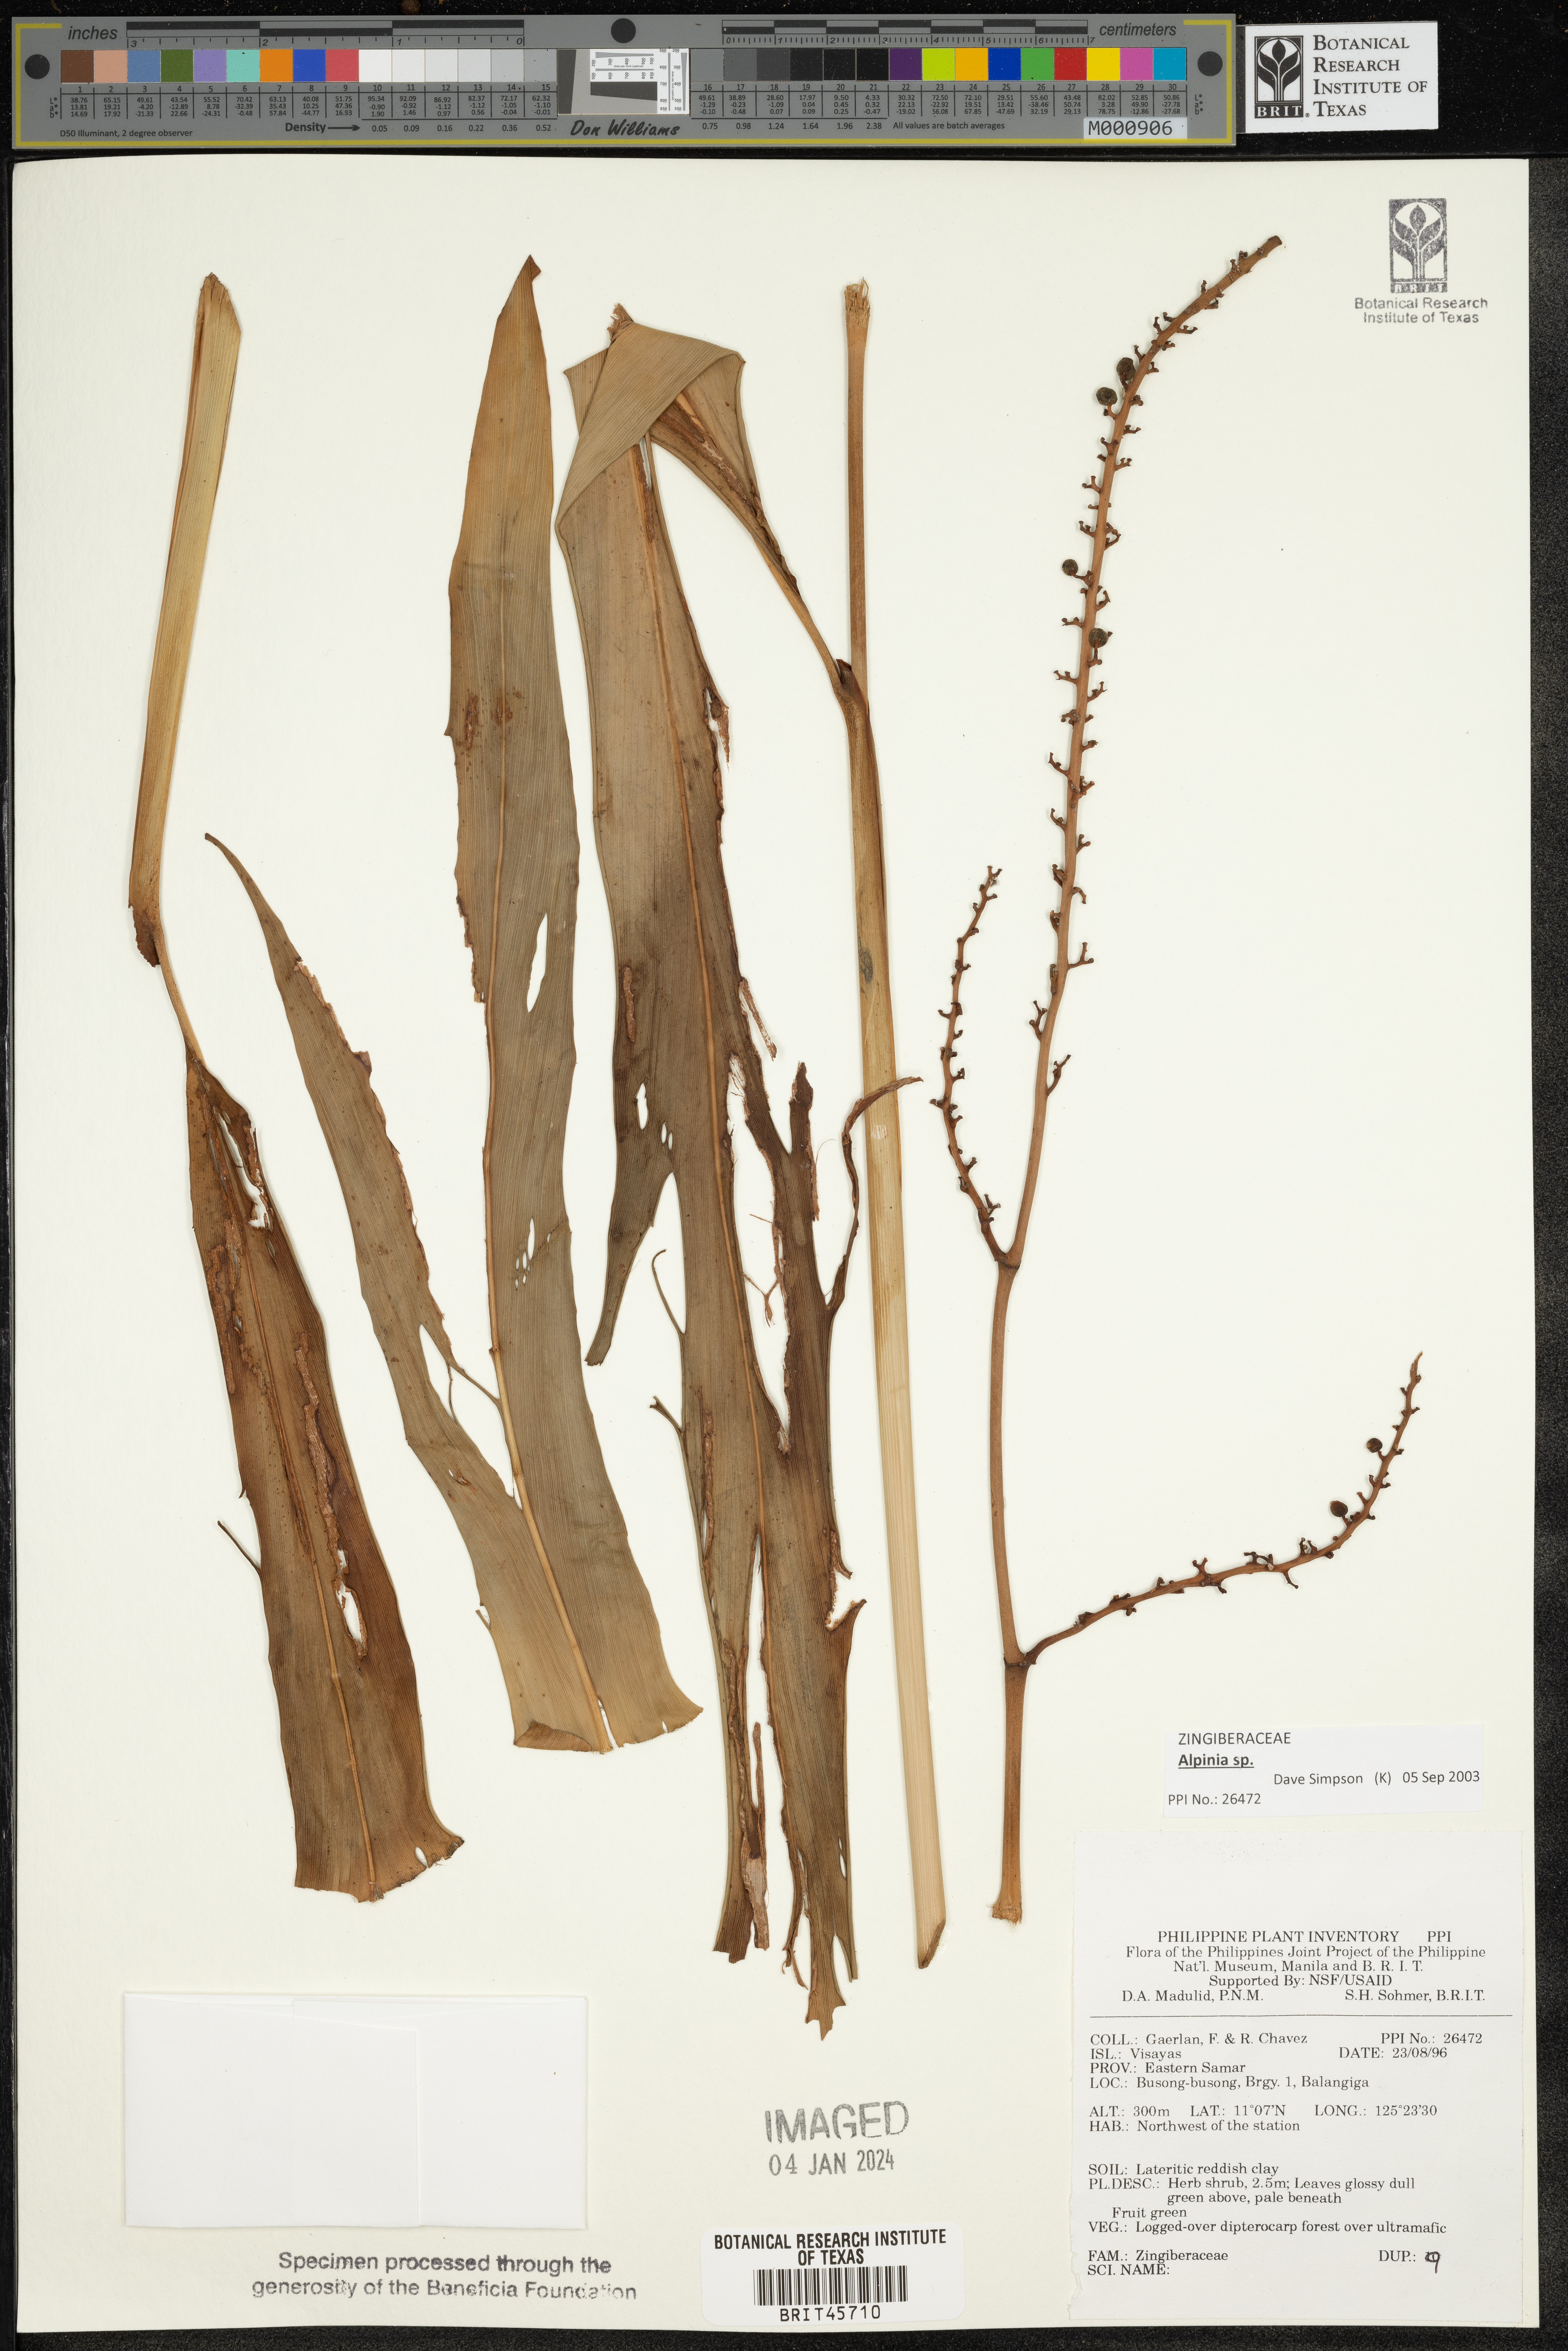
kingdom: Plantae
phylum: Tracheophyta
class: Liliopsida
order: Zingiberales
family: Zingiberaceae
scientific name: Zingiberaceae
